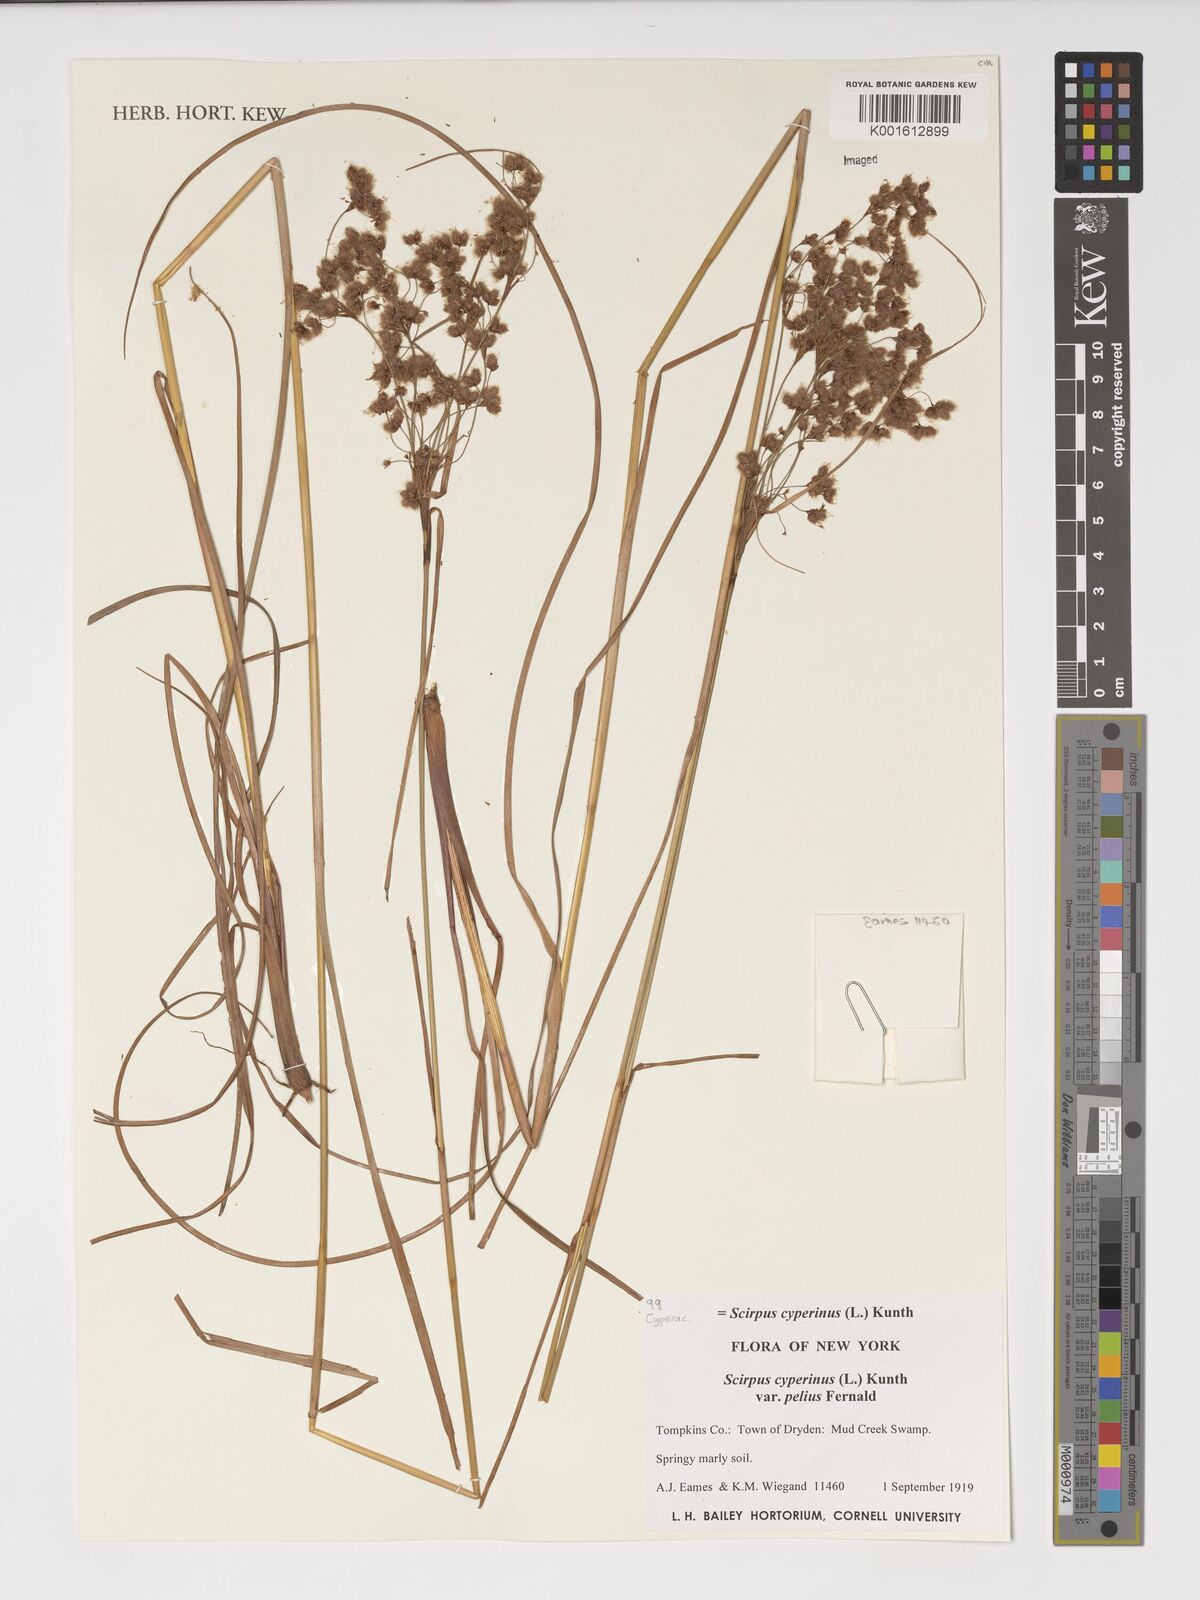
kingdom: Plantae
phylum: Tracheophyta
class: Liliopsida
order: Poales
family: Cyperaceae
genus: Scirpus
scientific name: Scirpus cyperinus
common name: Black-sheathed bulrush
